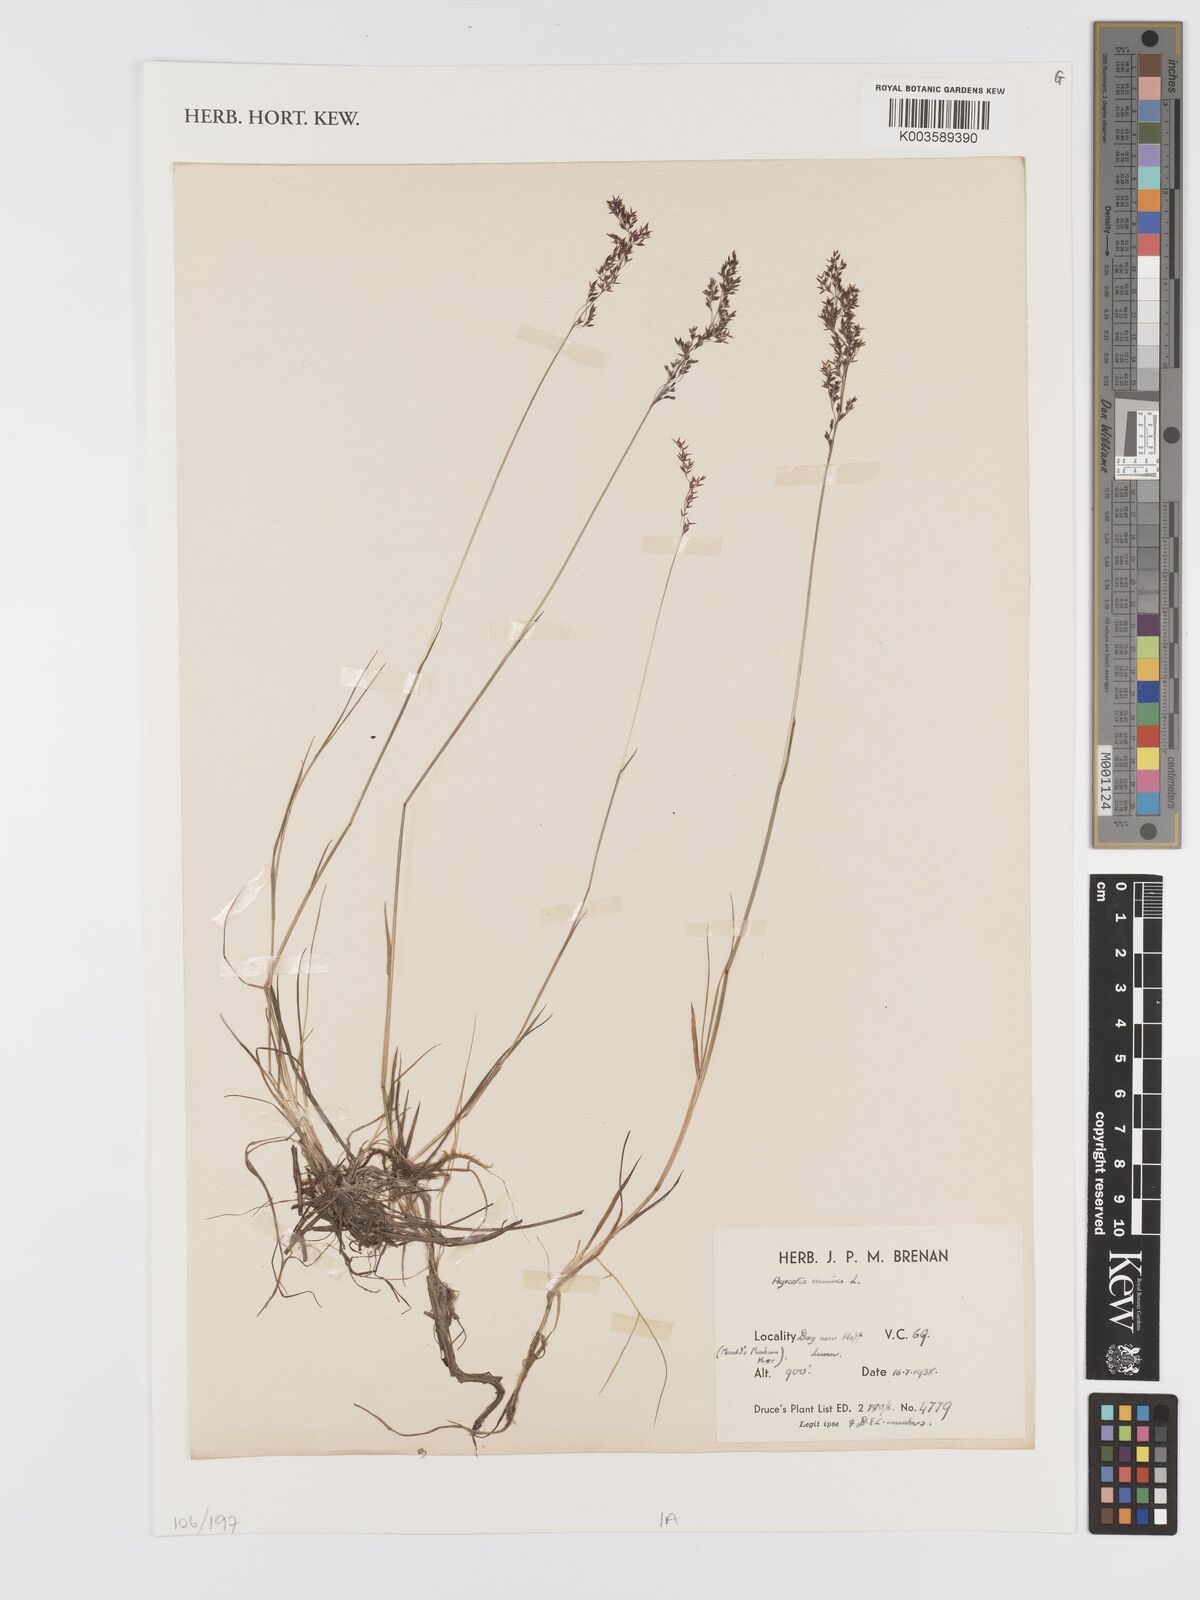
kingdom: Plantae
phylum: Tracheophyta
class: Liliopsida
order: Poales
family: Poaceae
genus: Agrostis
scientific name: Agrostis canina
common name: Velvet bent
